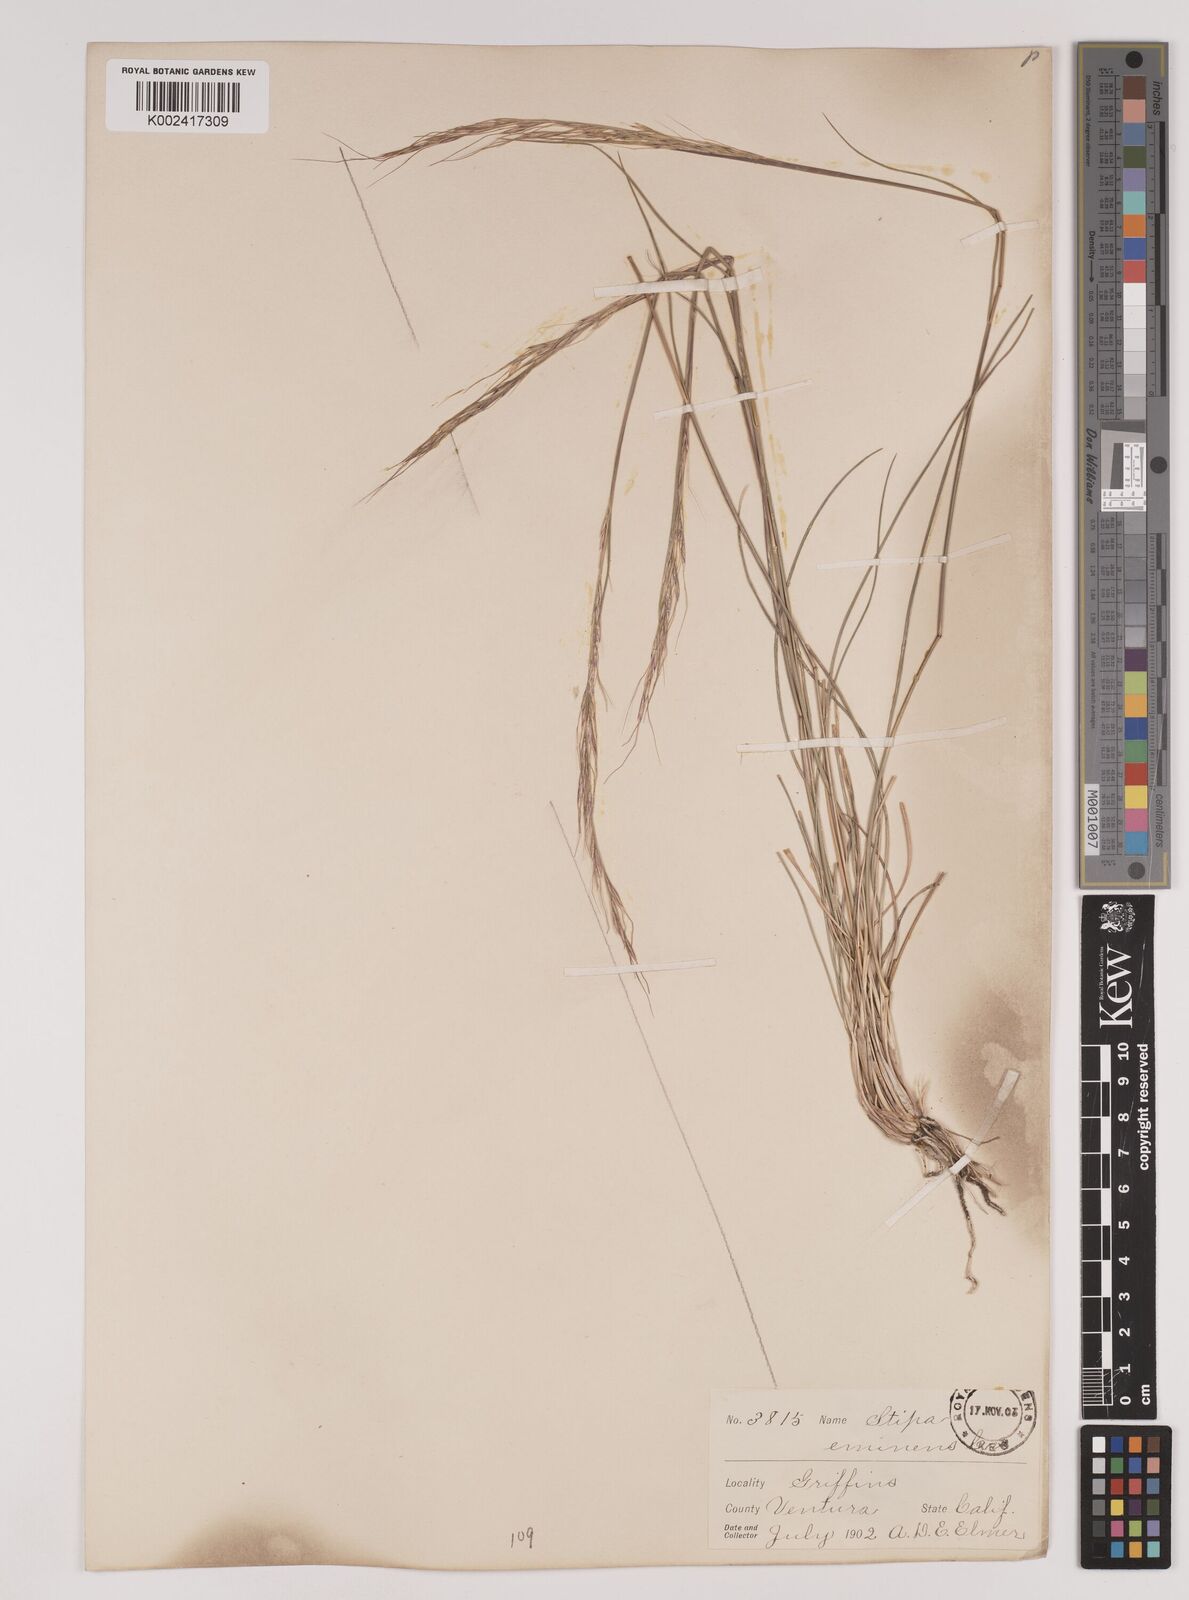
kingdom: Plantae
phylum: Tracheophyta
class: Liliopsida
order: Poales
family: Poaceae
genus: Nassella
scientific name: Nassella lepida
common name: Foothill needlegrass
